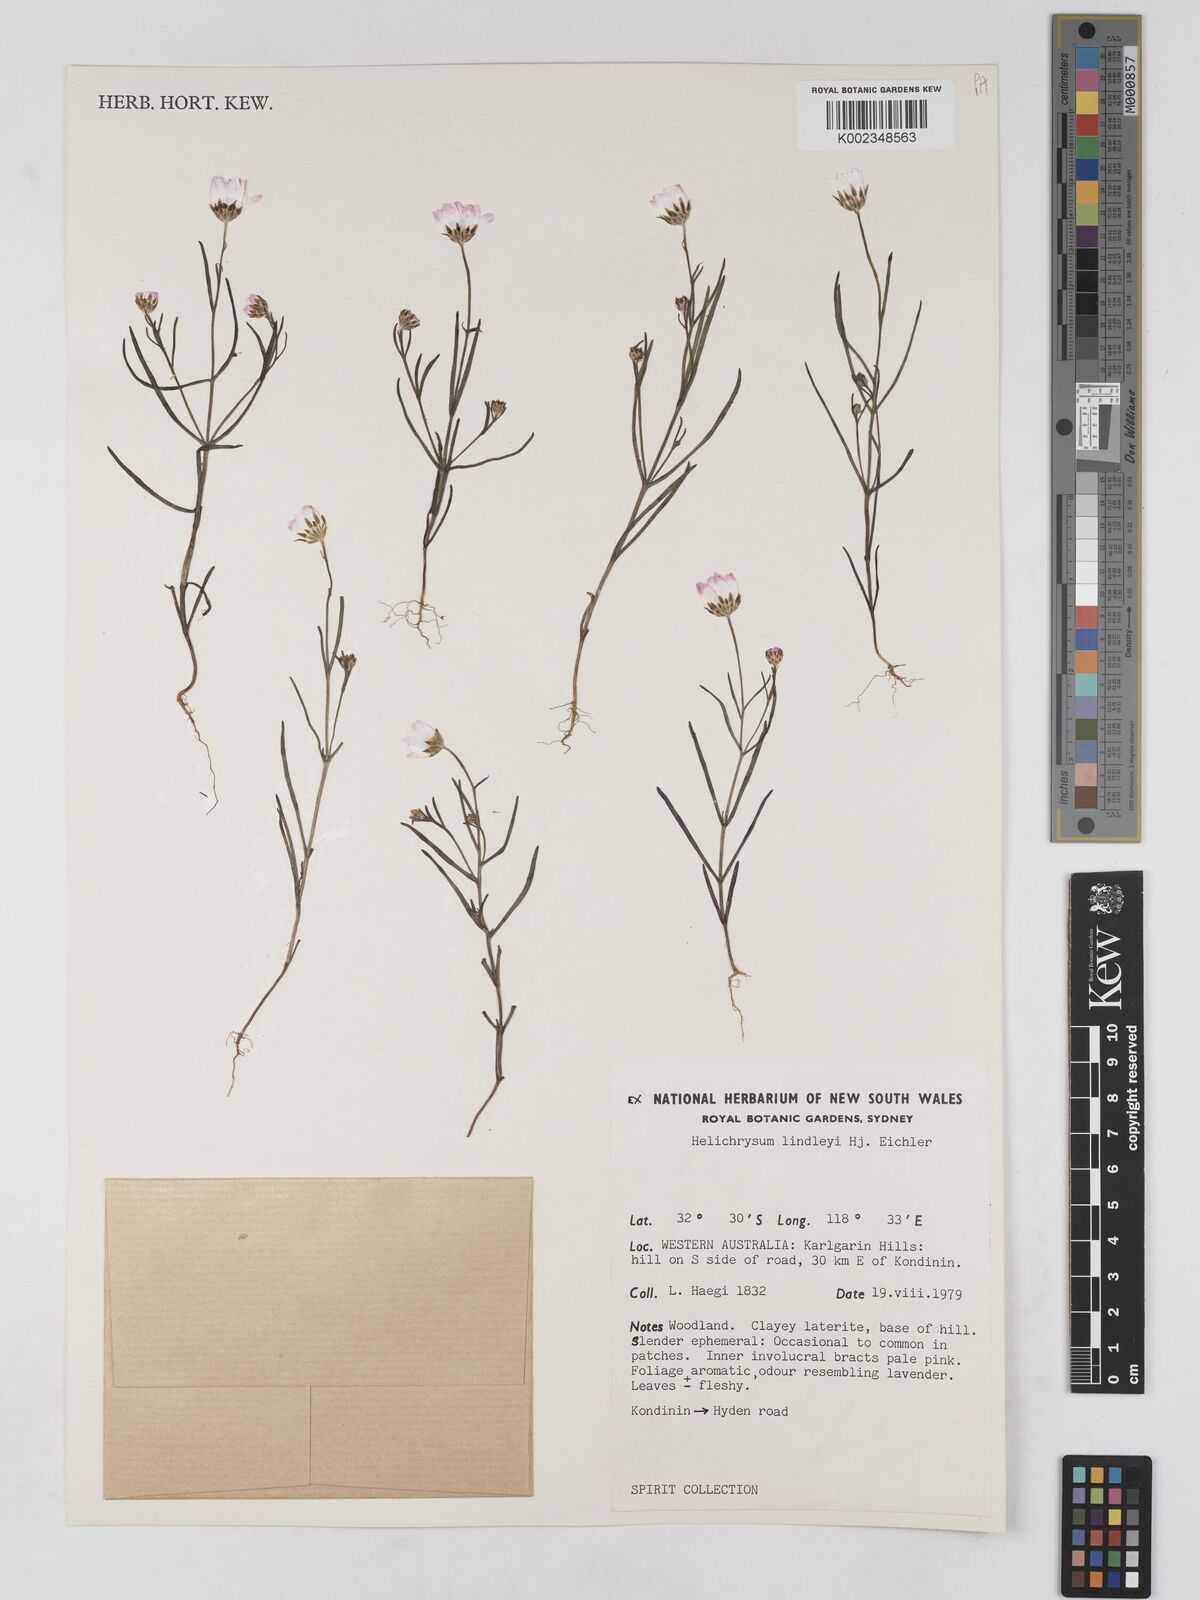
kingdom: Plantae
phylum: Tracheophyta
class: Magnoliopsida
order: Asterales
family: Asteraceae
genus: Lawrencella
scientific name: Lawrencella rosea
